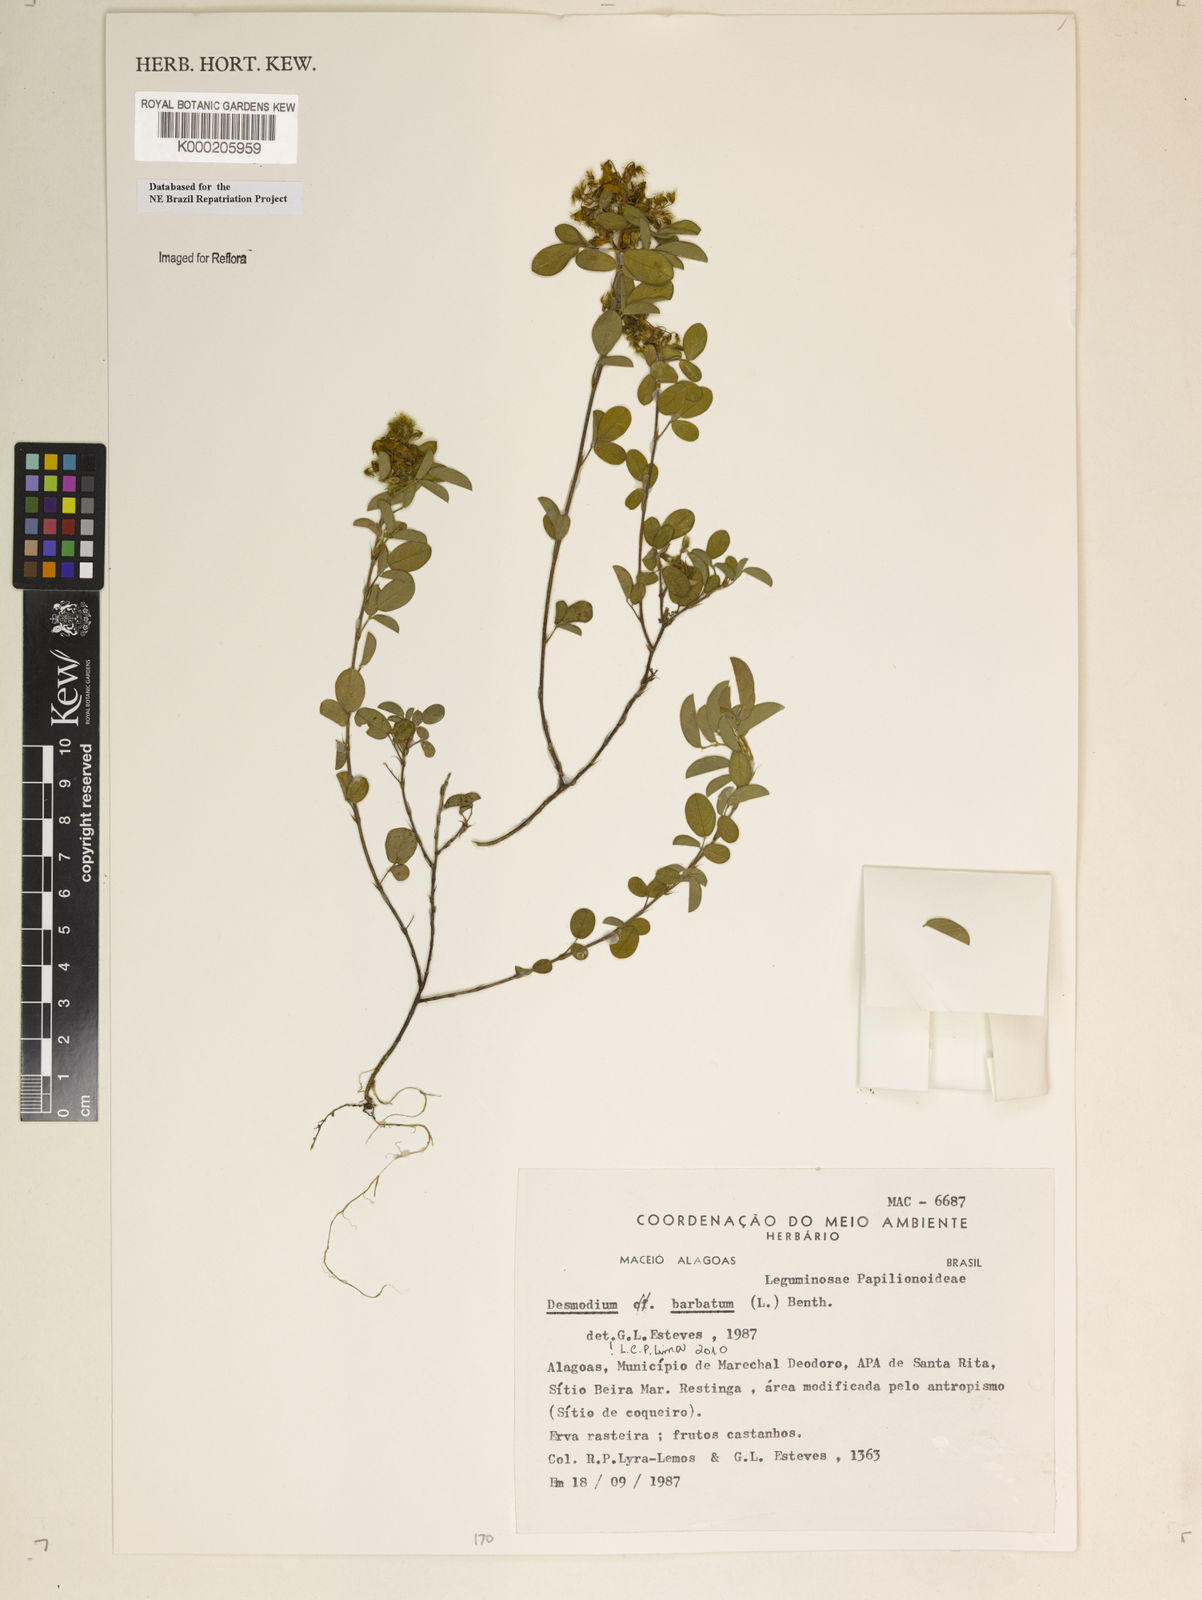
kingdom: Plantae
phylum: Tracheophyta
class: Magnoliopsida
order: Fabales
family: Fabaceae
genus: Grona
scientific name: Grona barbata
